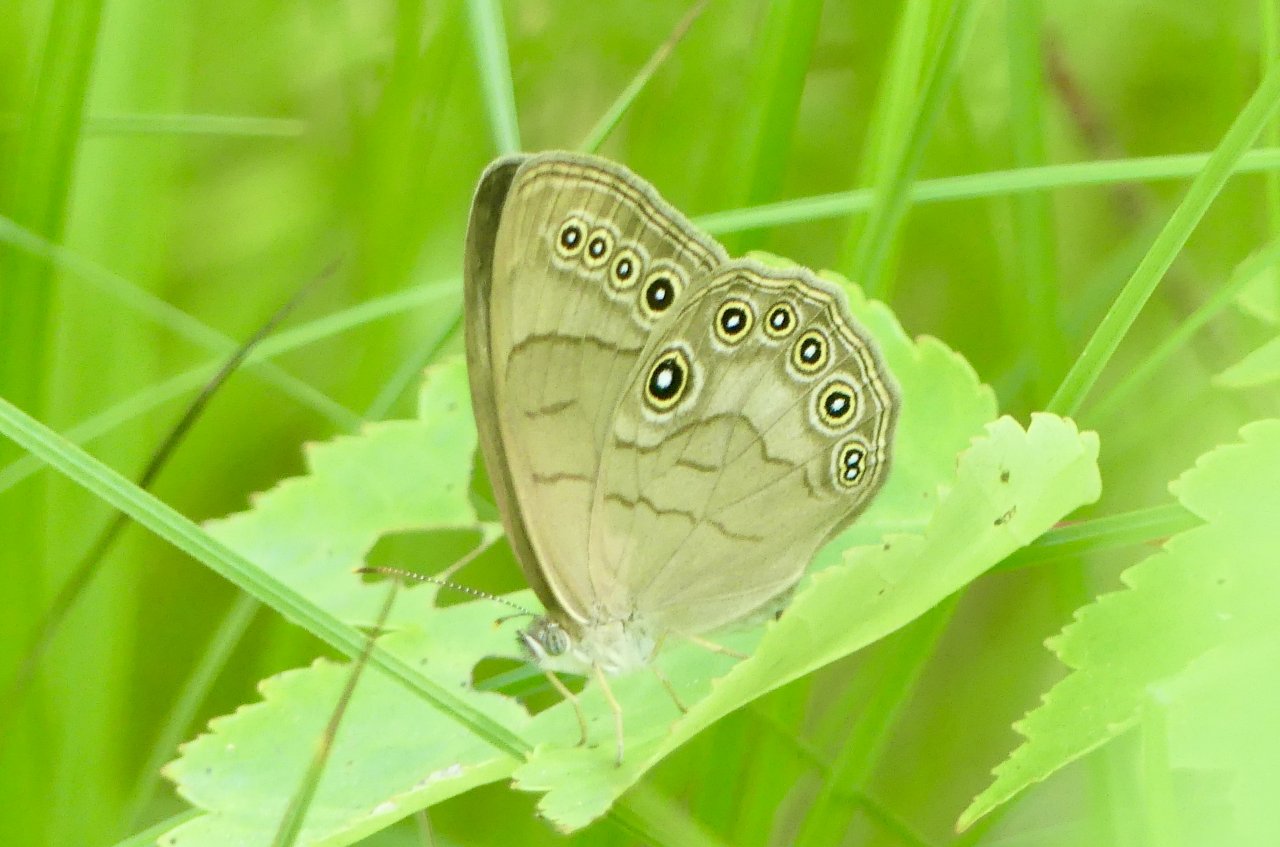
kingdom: Animalia
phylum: Arthropoda
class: Insecta
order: Lepidoptera
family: Nymphalidae
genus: Lethe
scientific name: Lethe eurydice
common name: Appalachian Eyed Brown
